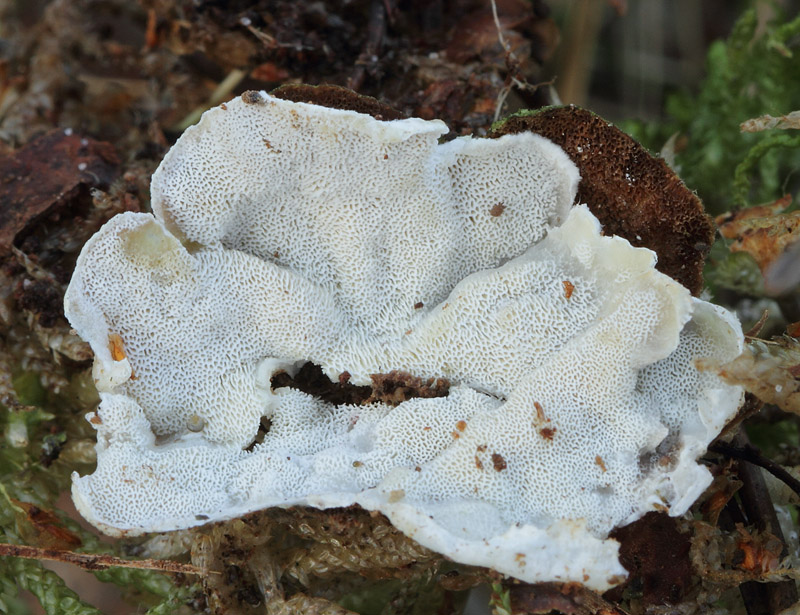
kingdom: Fungi
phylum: Basidiomycota
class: Agaricomycetes
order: Polyporales
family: Incrustoporiaceae
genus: Skeletocutis
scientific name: Skeletocutis carneogrisea
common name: rødgrå krystalporesvamp
